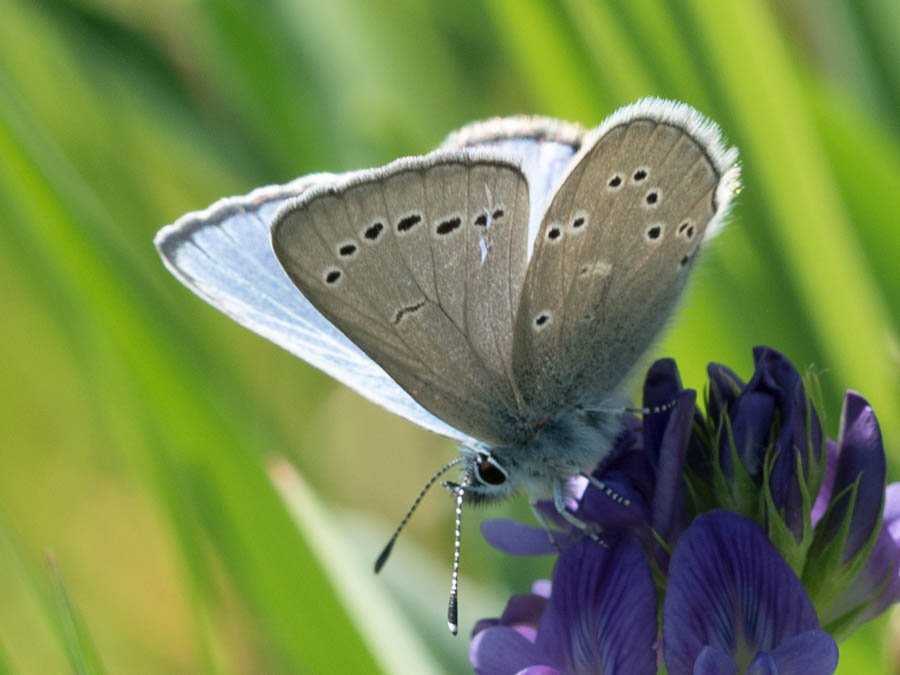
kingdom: Animalia
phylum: Arthropoda
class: Insecta
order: Lepidoptera
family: Lycaenidae
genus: Glaucopsyche
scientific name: Glaucopsyche lygdamus
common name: Silvery Blue
